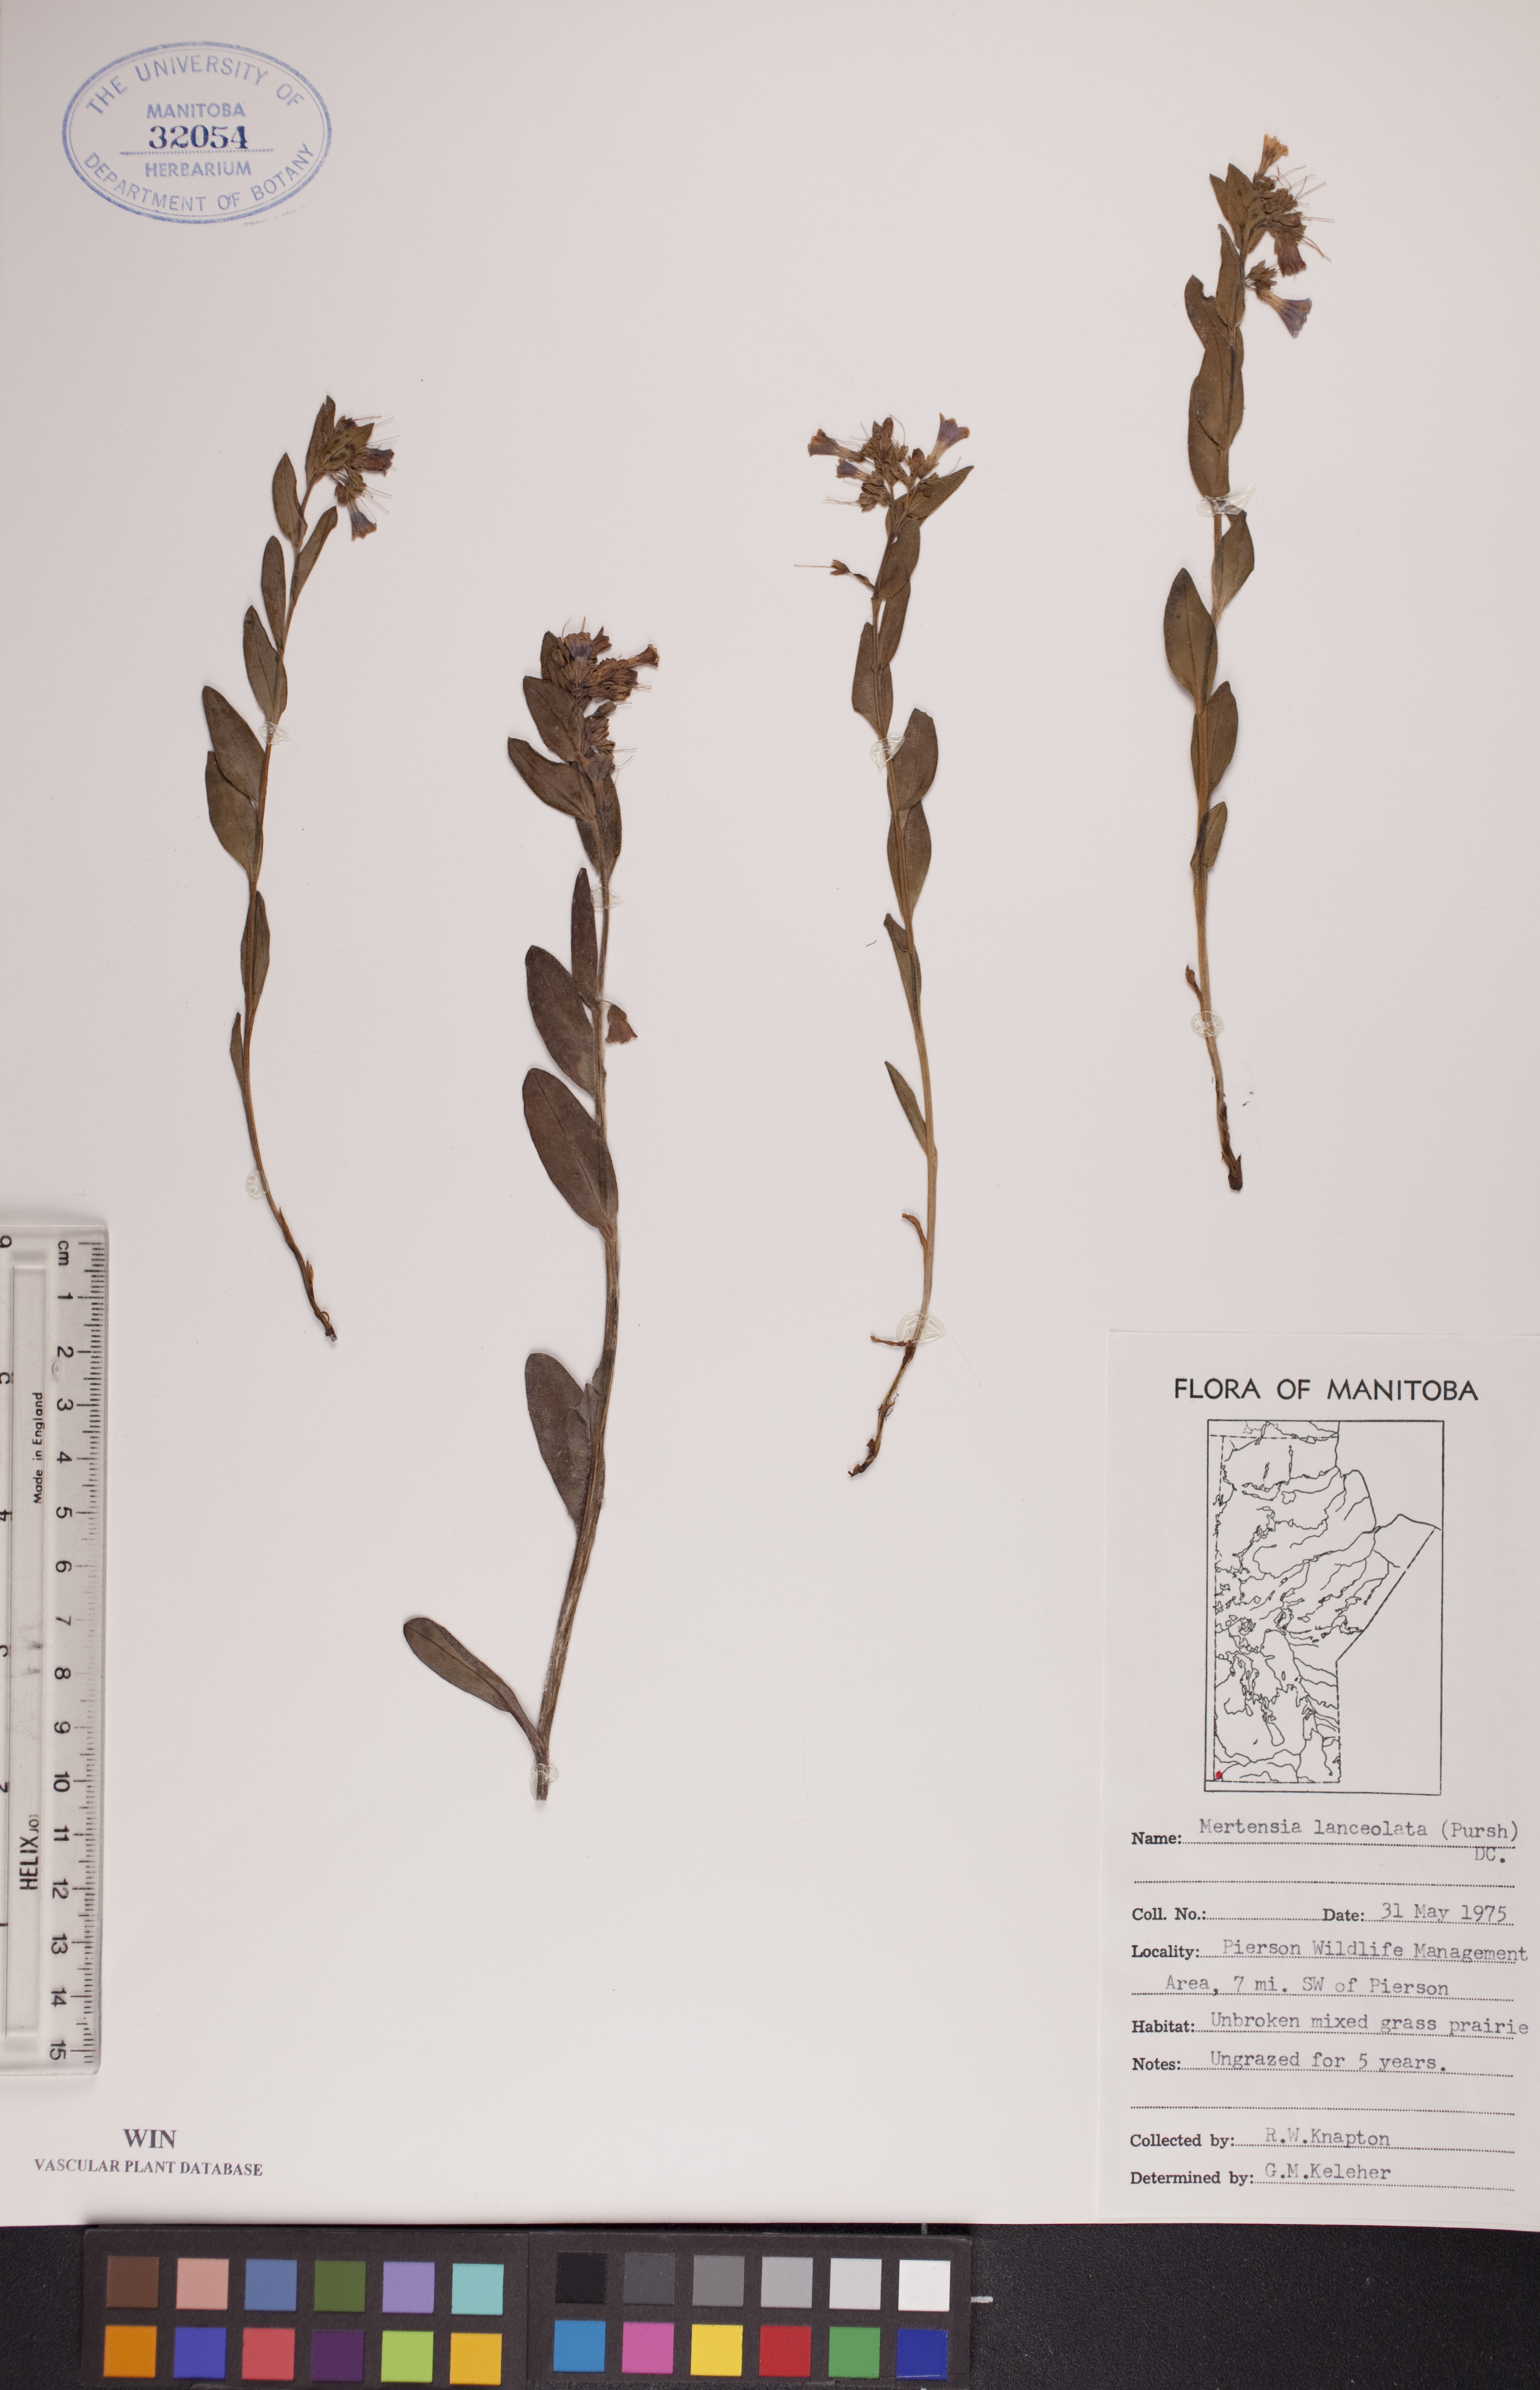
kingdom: Plantae
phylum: Tracheophyta
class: Magnoliopsida
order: Boraginales
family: Boraginaceae
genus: Mertensia
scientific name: Mertensia lanceolata
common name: Lance-leaved bluebells
